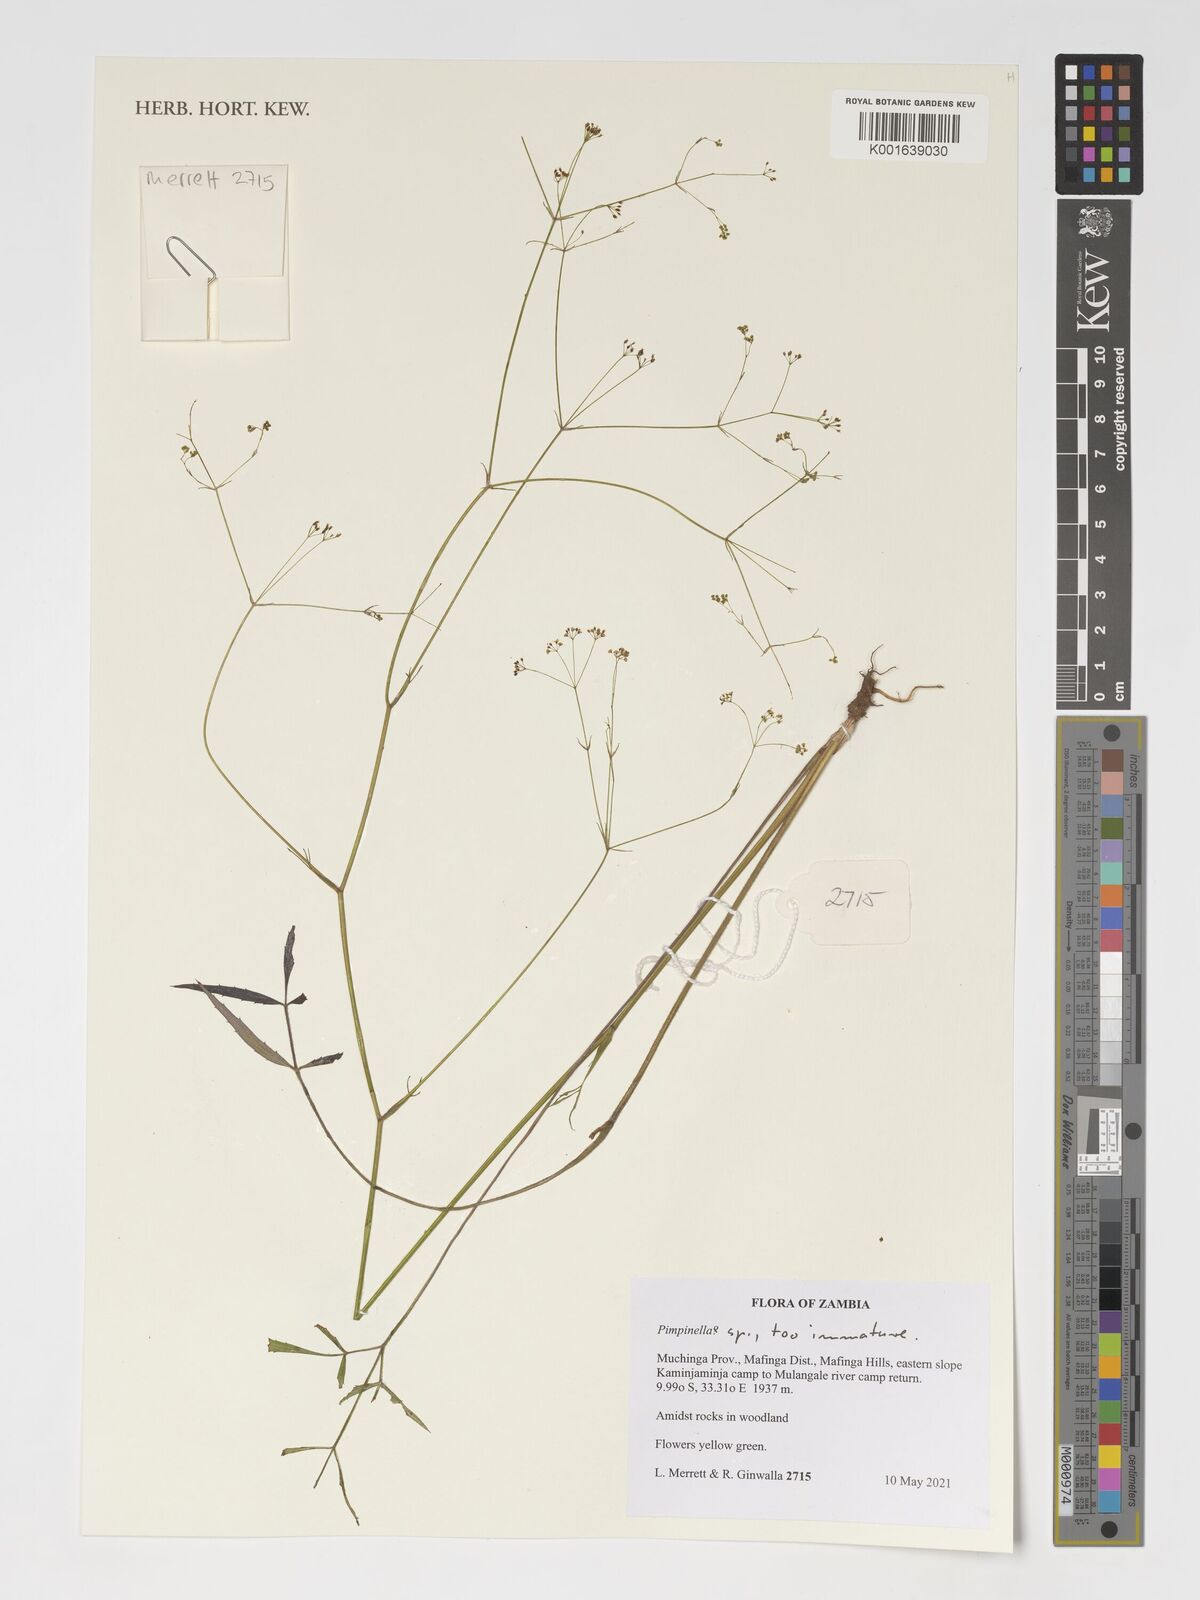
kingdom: Plantae
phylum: Tracheophyta
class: Magnoliopsida
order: Apiales
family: Apiaceae
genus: Pimpinella
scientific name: Pimpinella
